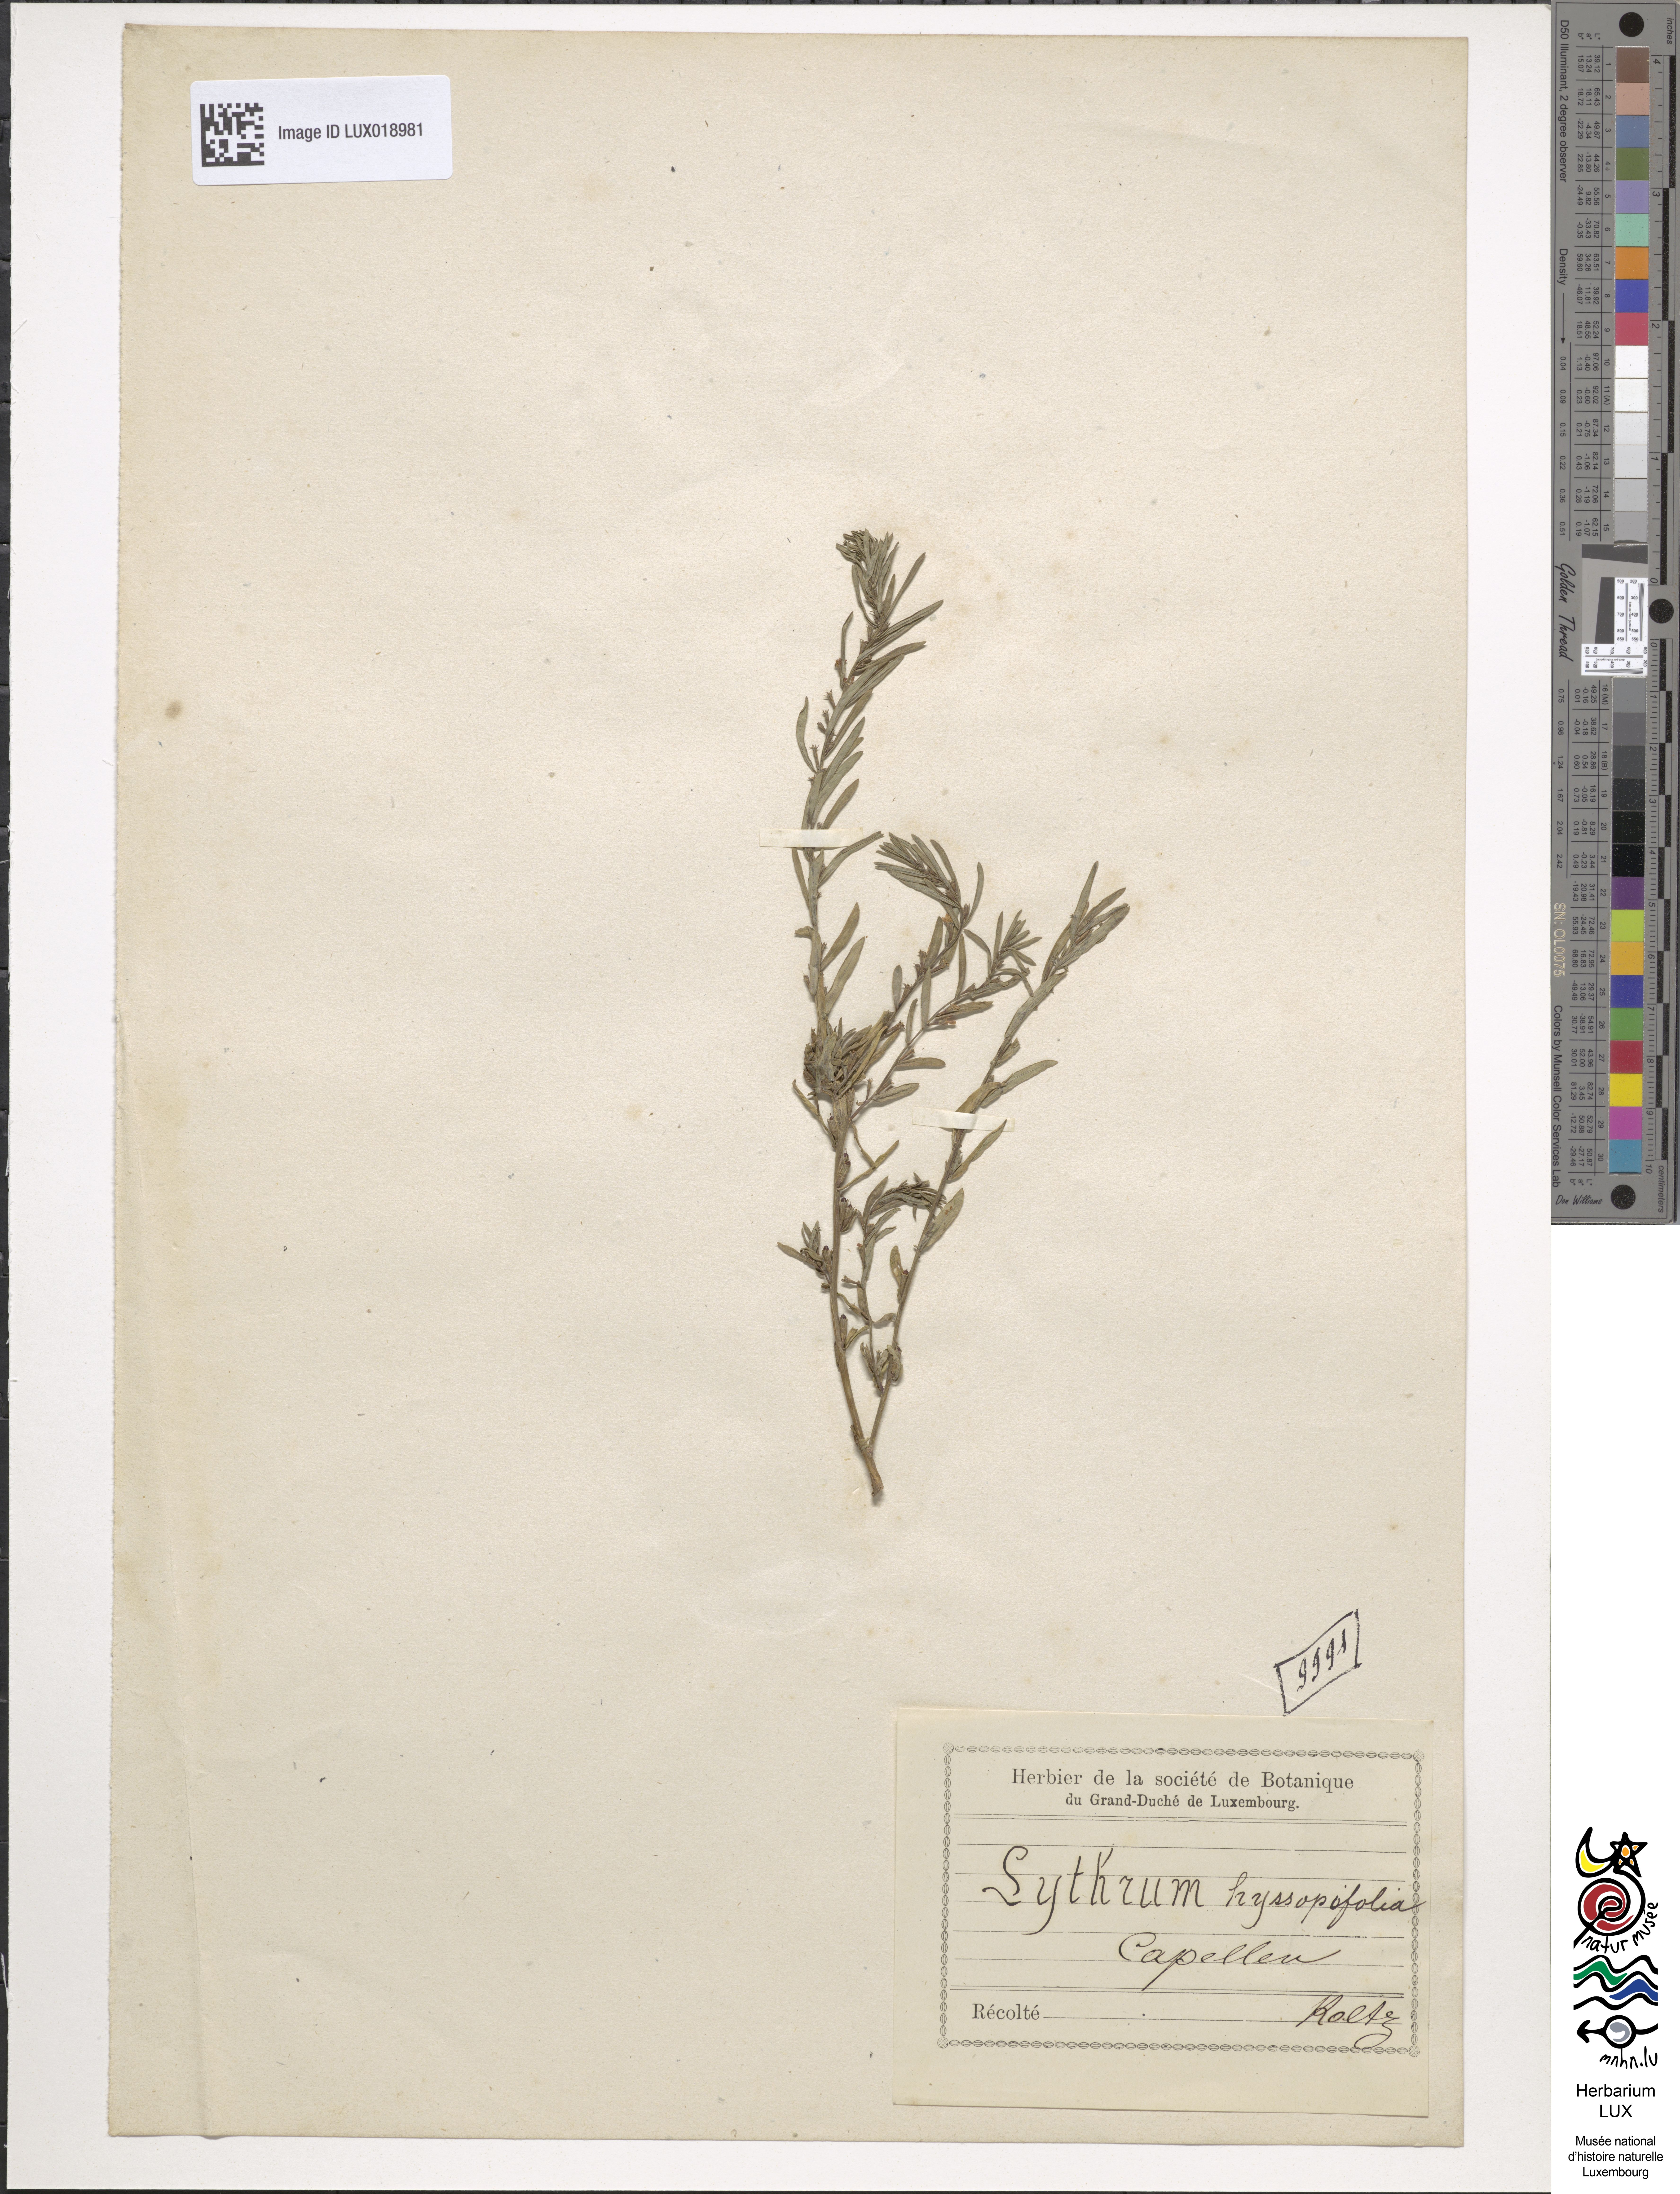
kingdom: Plantae
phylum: Tracheophyta
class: Magnoliopsida
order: Myrtales
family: Lythraceae
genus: Lythrum
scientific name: Lythrum hyssopifolia
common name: Grass-poly
